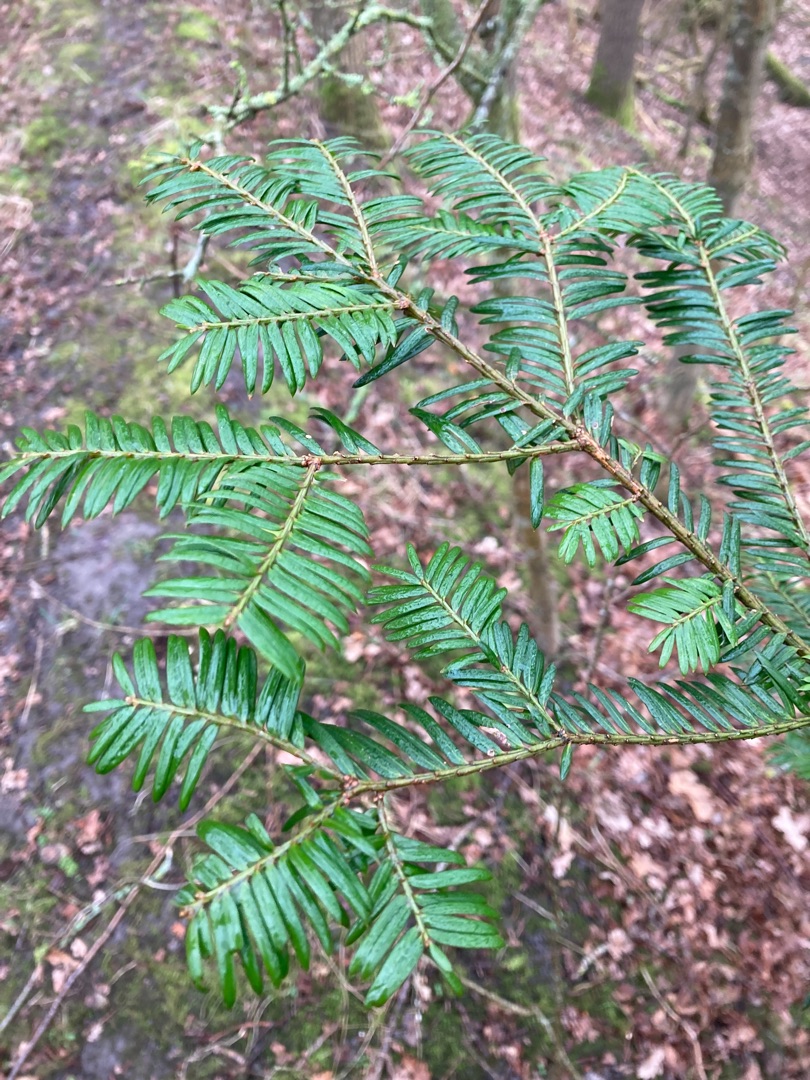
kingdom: Plantae
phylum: Tracheophyta
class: Pinopsida
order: Pinales
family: Taxaceae
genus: Taxus
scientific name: Taxus baccata
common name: Almindelig taks
